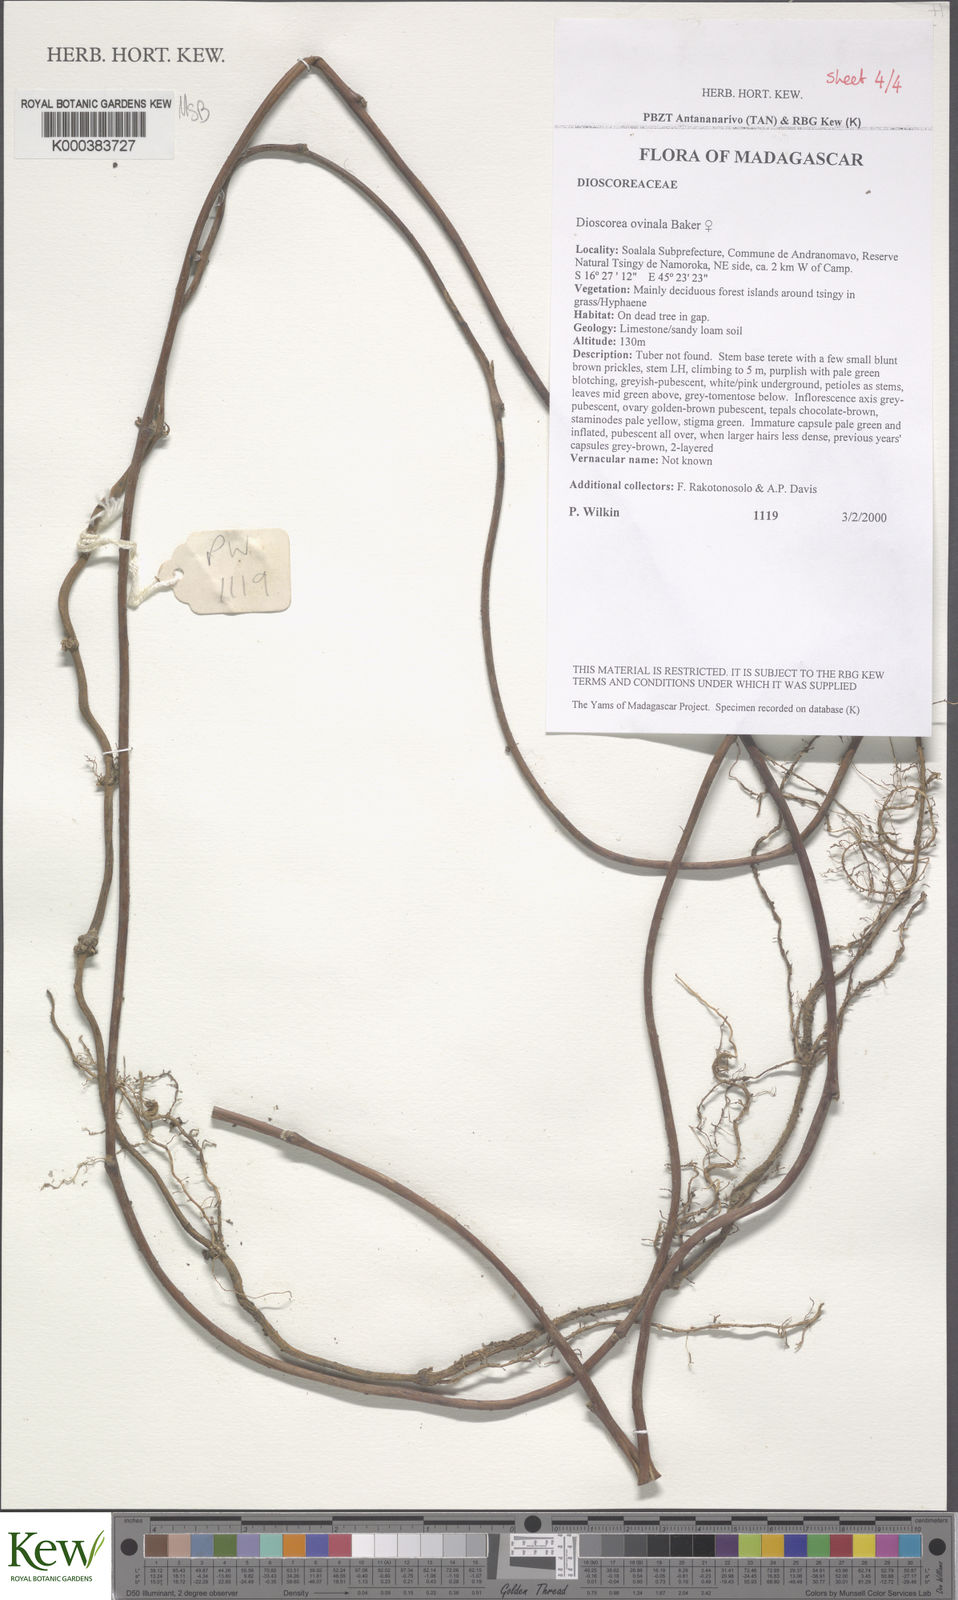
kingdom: Plantae
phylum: Tracheophyta
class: Liliopsida
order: Dioscoreales
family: Dioscoreaceae
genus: Dioscorea
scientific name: Dioscorea ovinala
